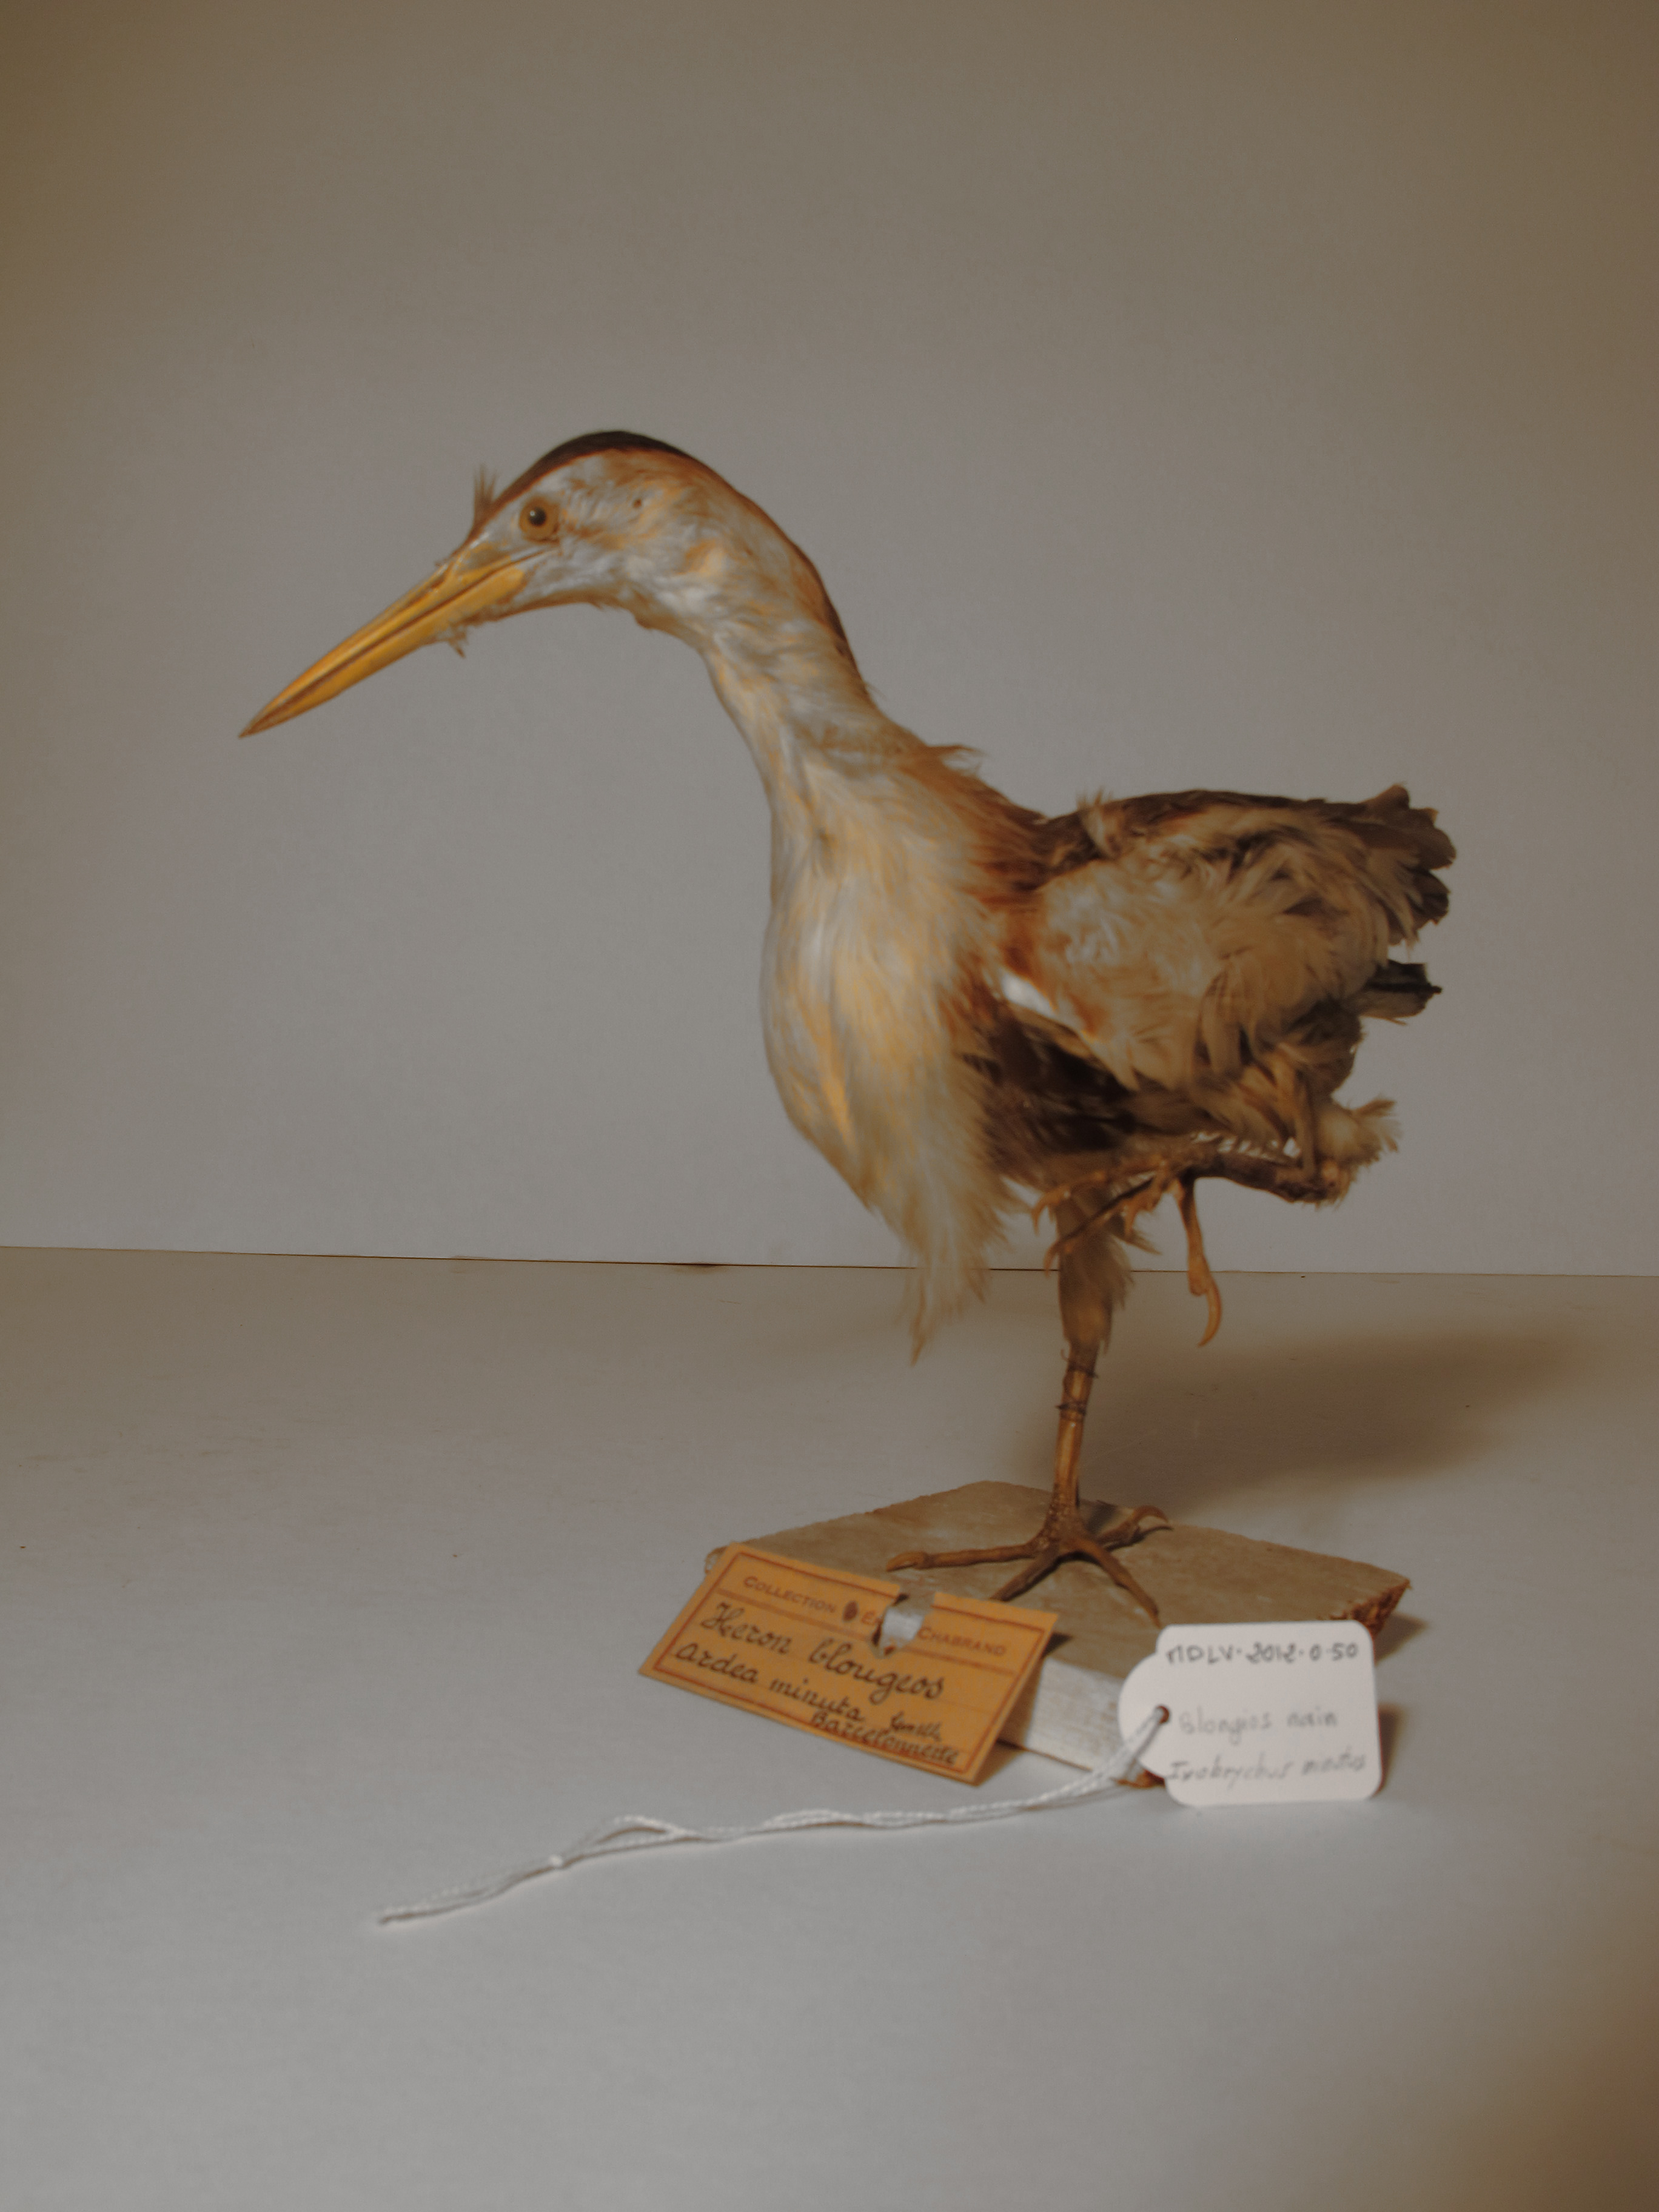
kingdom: Animalia
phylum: Chordata
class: Aves
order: Pelecaniformes
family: Ardeidae
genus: Ixobrychus
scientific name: Ixobrychus minutus
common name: Little Bittern
